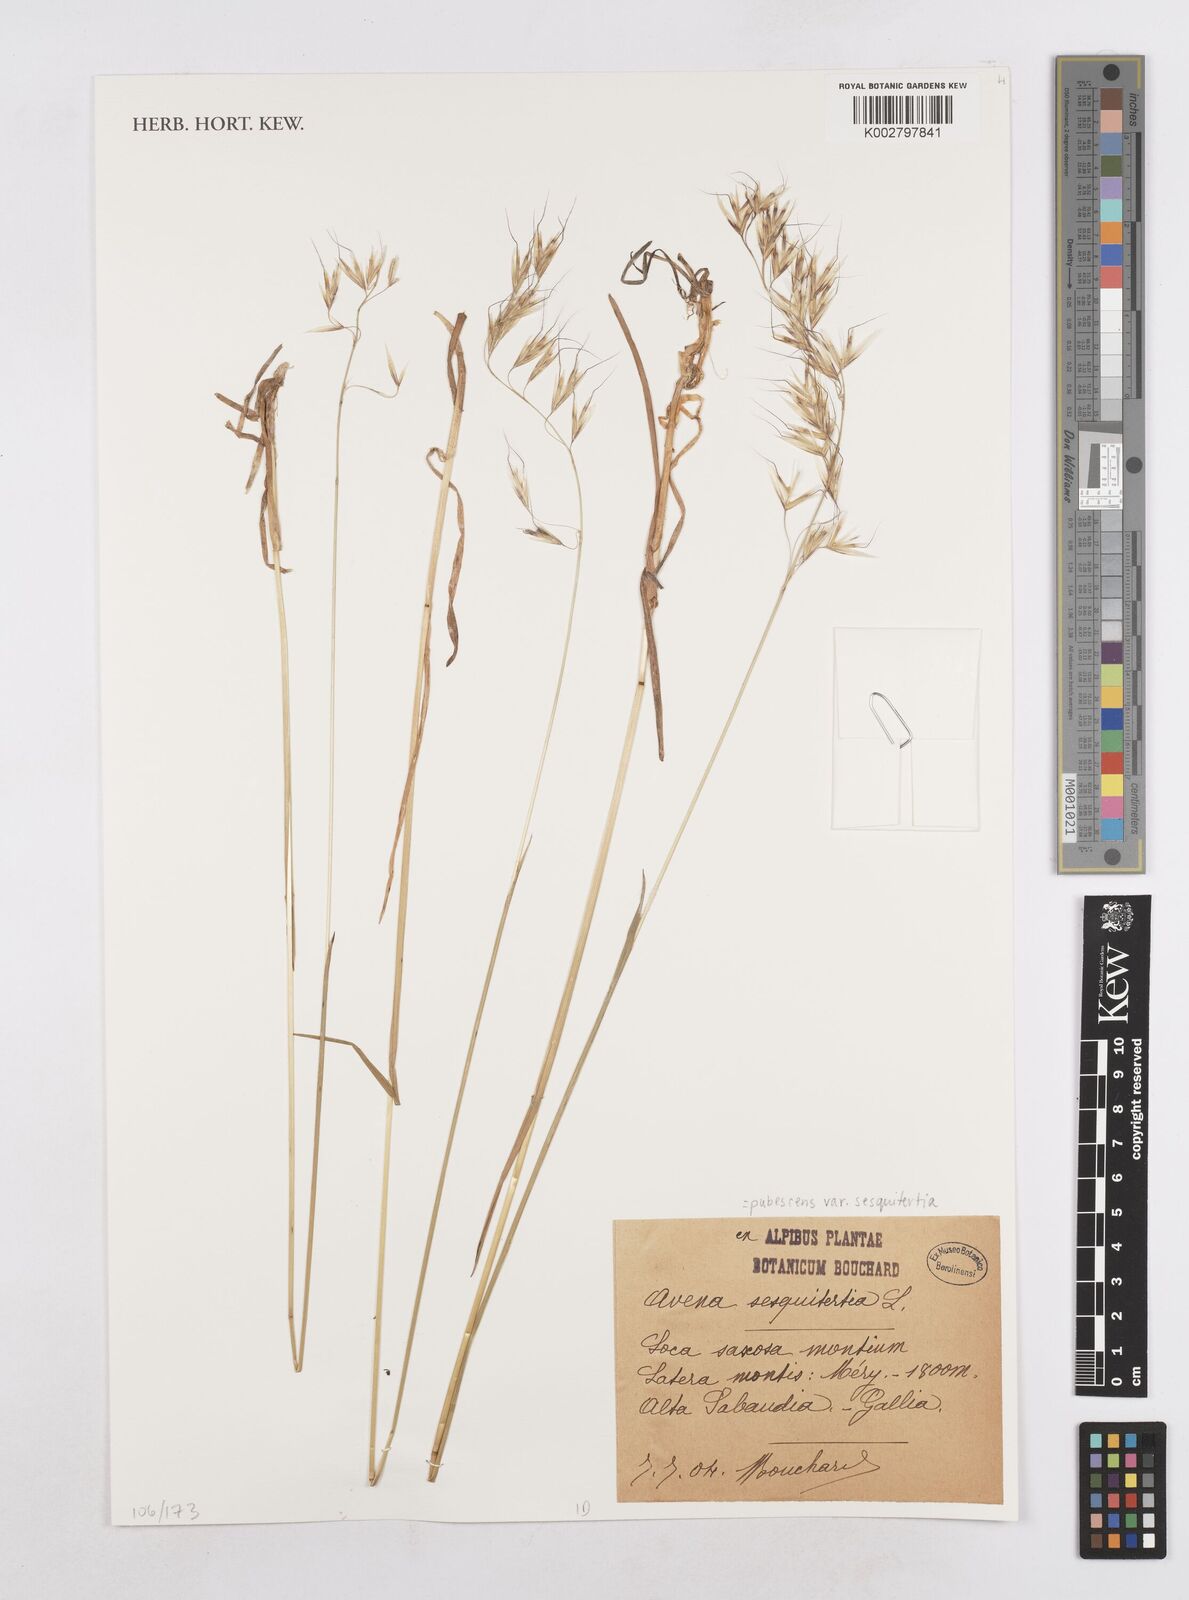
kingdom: Plantae
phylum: Tracheophyta
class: Liliopsida
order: Poales
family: Poaceae
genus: Avenula
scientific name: Avenula pubescens
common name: Downy alpine oatgrass
